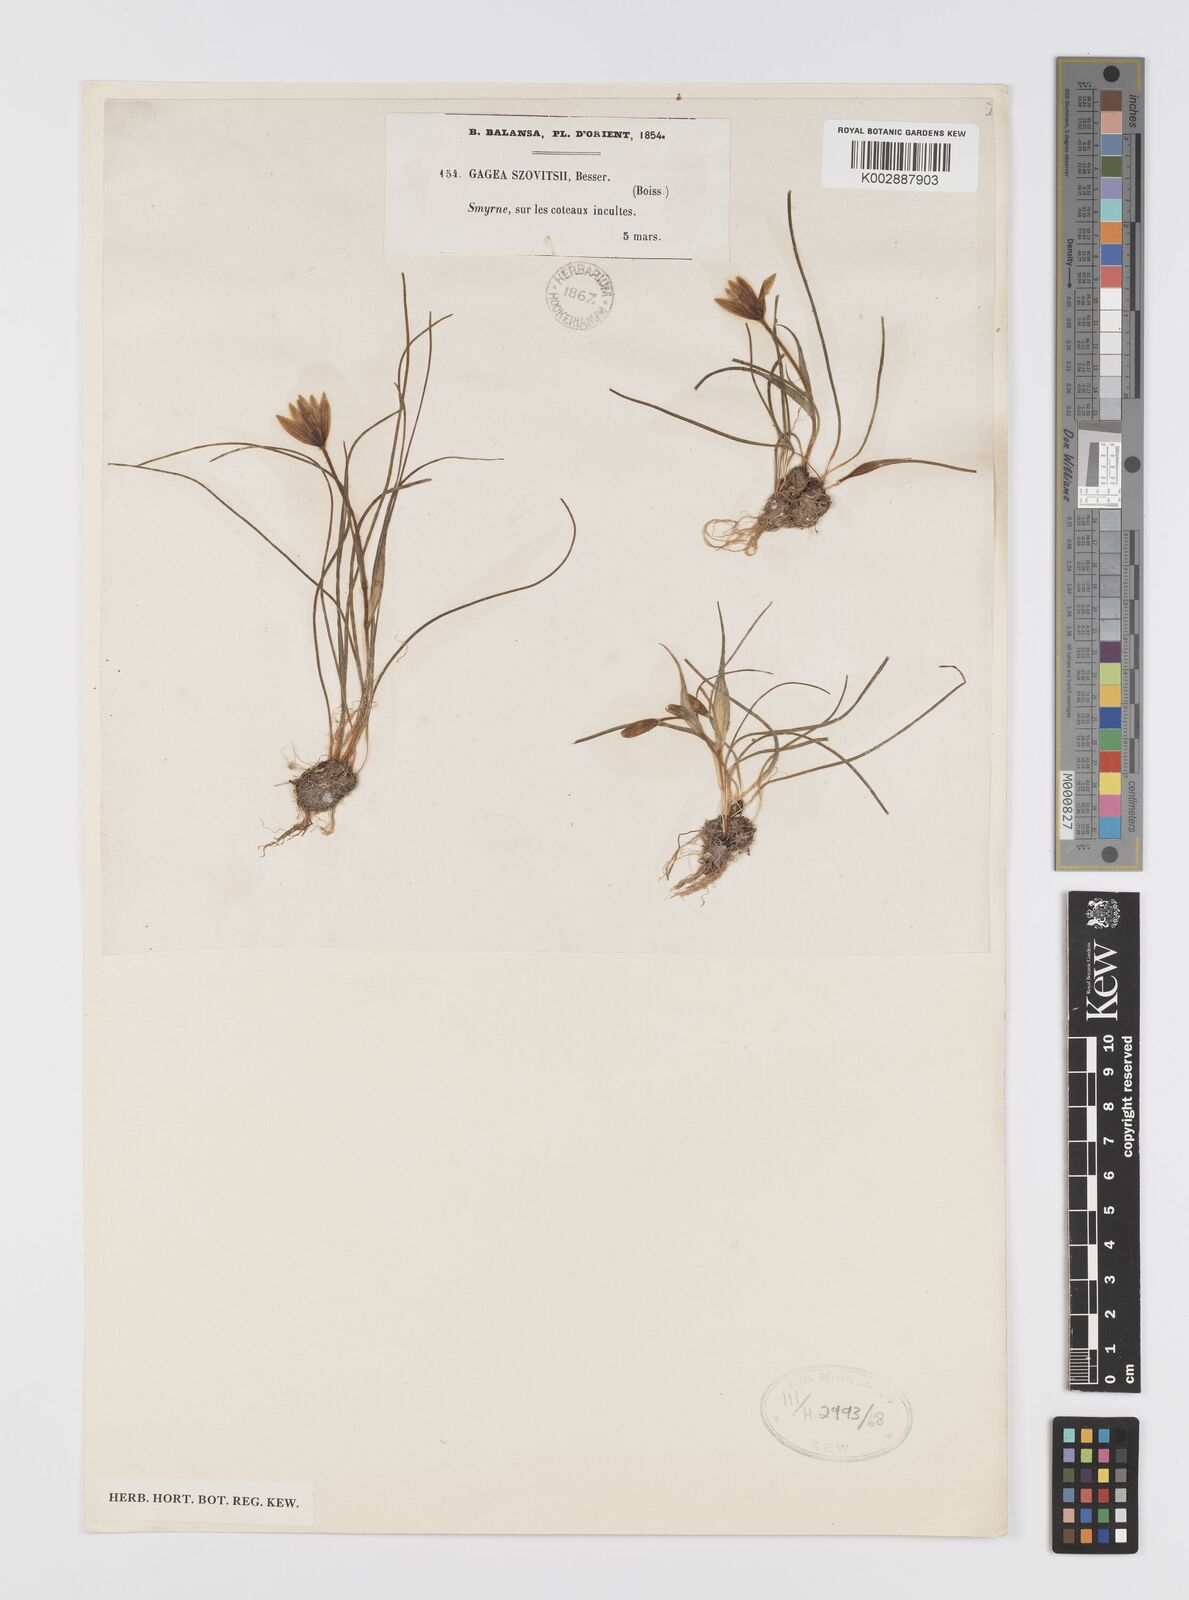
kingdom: Plantae
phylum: Tracheophyta
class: Liliopsida
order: Liliales
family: Liliaceae
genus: Gagea
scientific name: Gagea peduncularis
